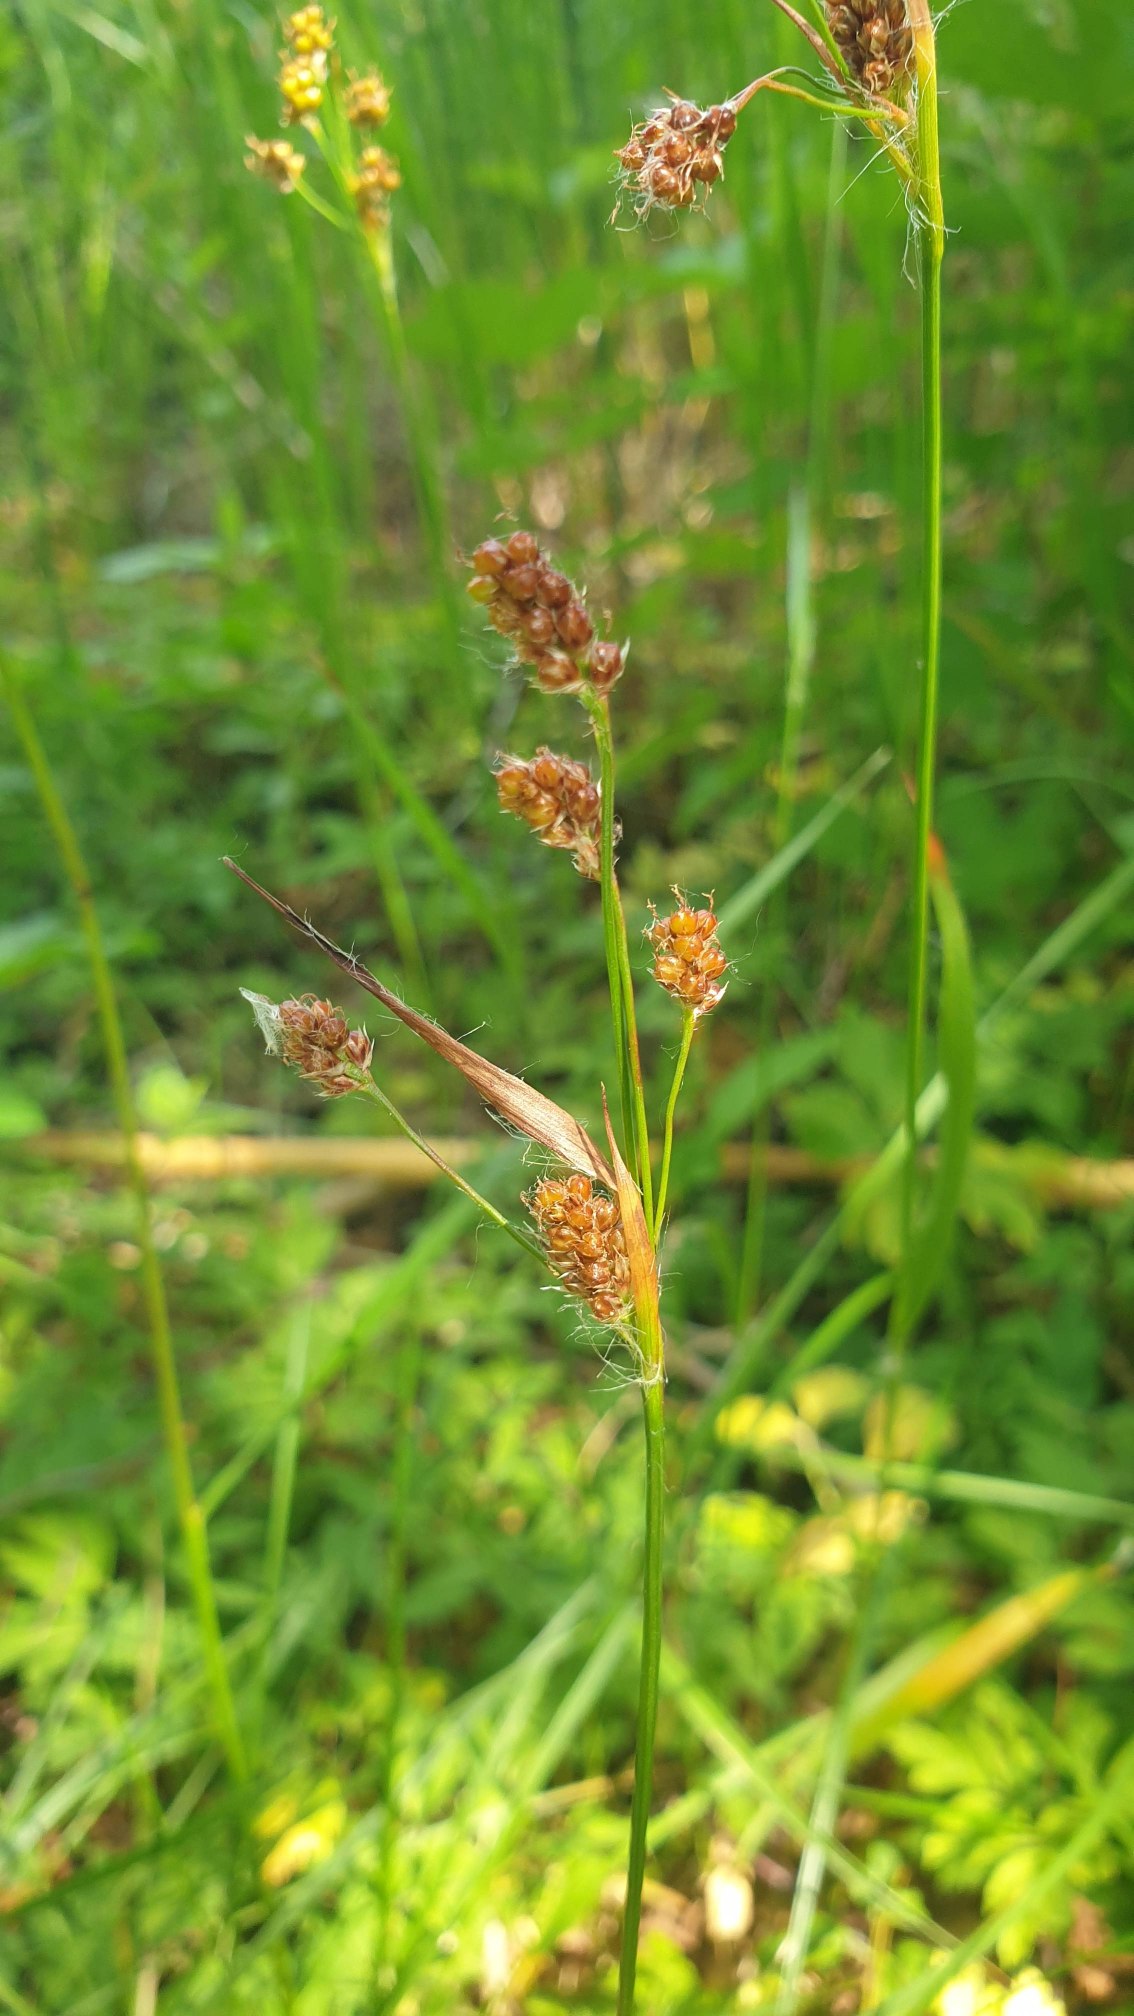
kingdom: Plantae
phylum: Tracheophyta
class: Liliopsida
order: Poales
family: Juncaceae
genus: Luzula
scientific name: Luzula multiflora
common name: Mangeblomstret frytle
